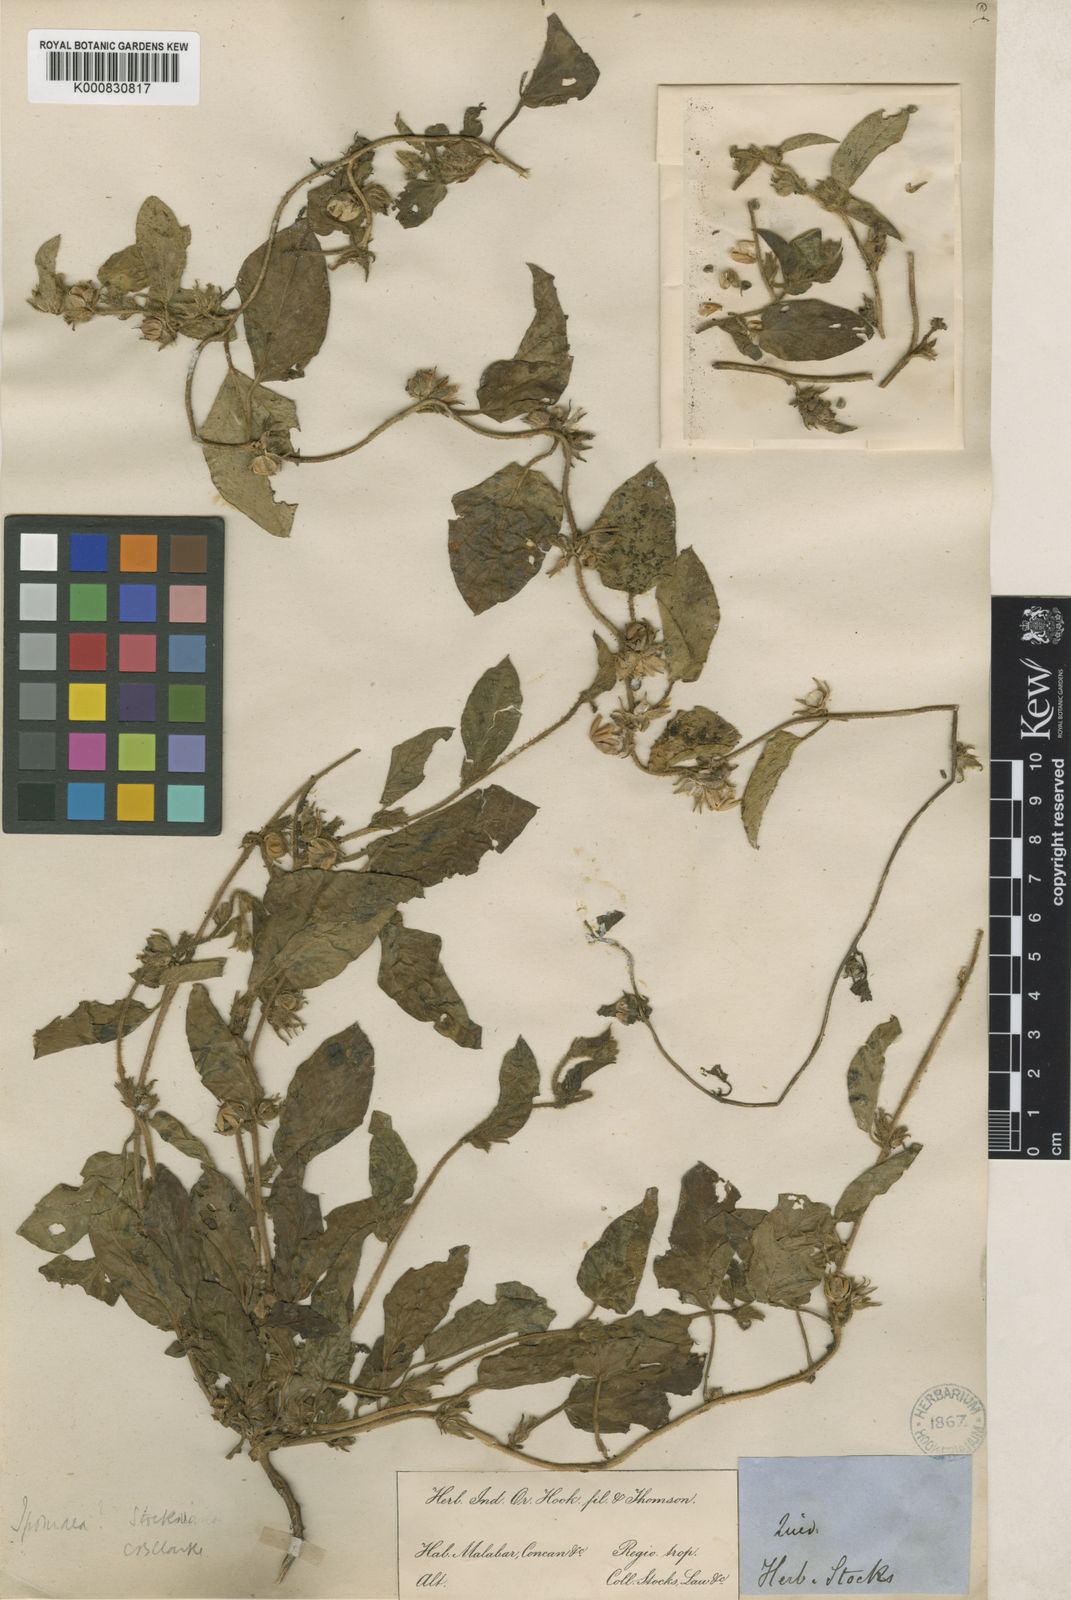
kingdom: Plantae
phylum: Tracheophyta
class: Magnoliopsida
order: Solanales
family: Convolvulaceae
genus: Ipomoea
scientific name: Ipomoea clarkei
